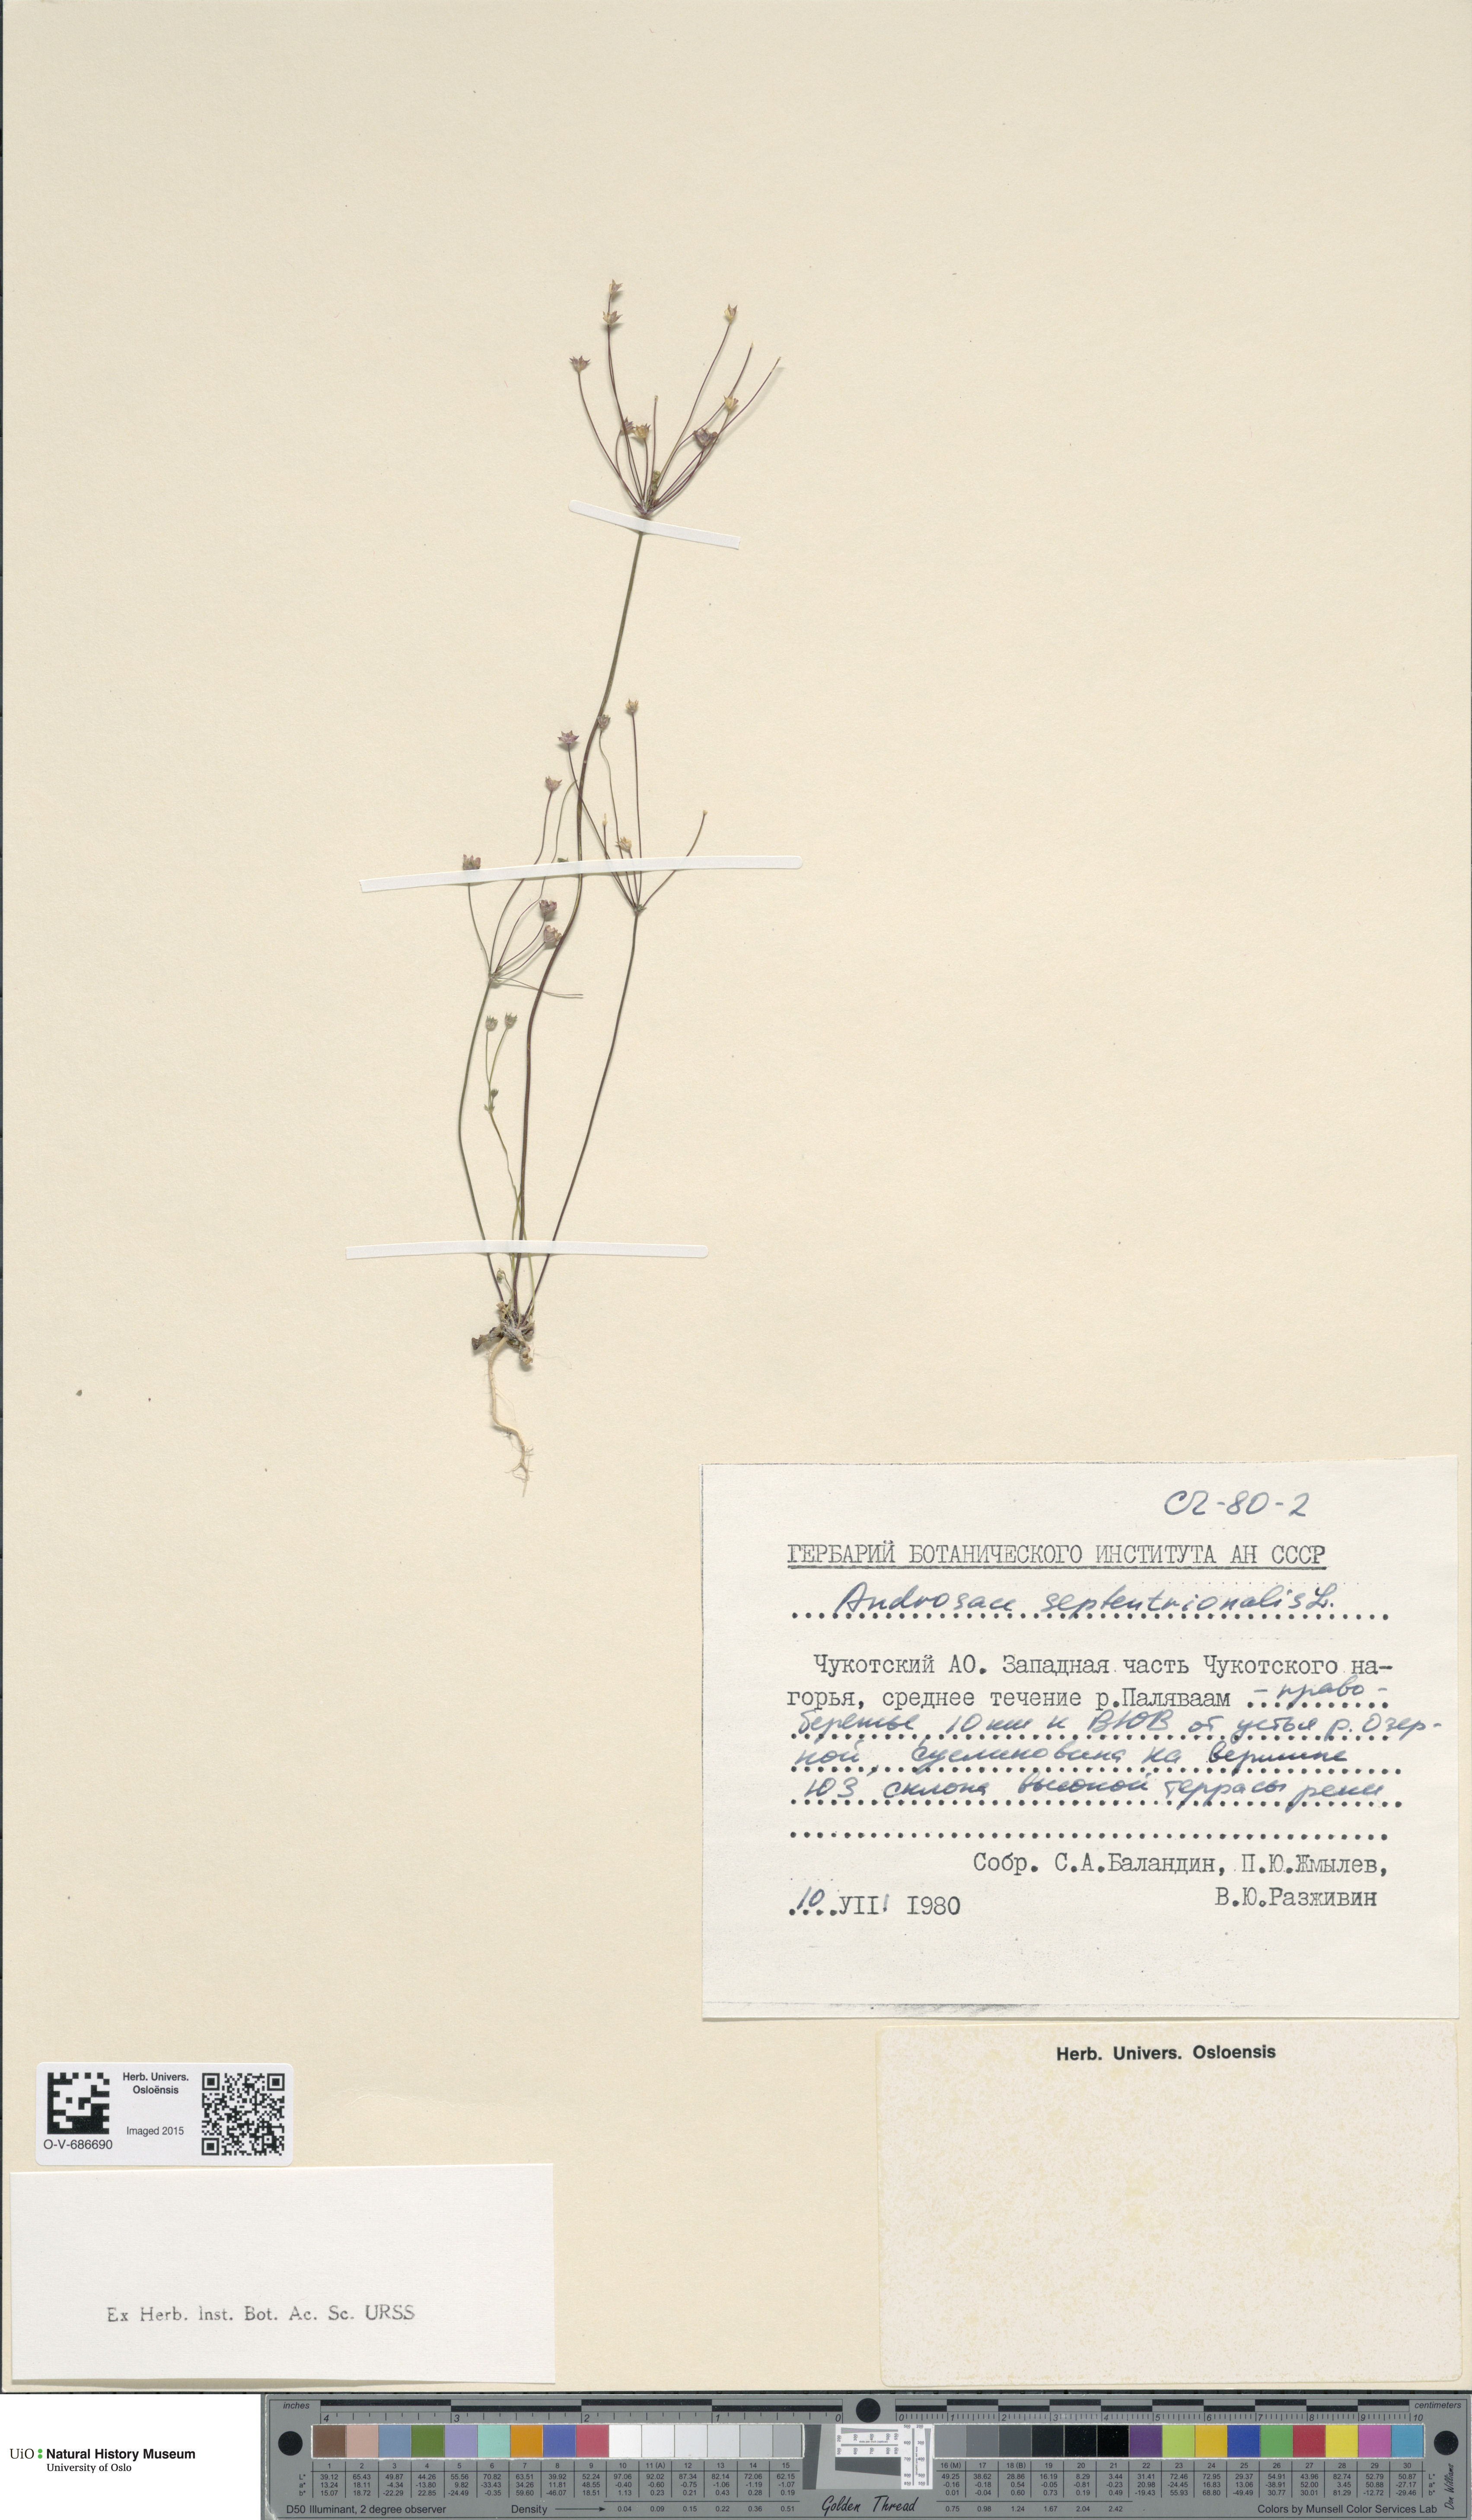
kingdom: Plantae
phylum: Tracheophyta
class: Magnoliopsida
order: Ericales
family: Primulaceae
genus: Androsace
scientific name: Androsace septentrionalis
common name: Hairy northern fairy-candelabra
